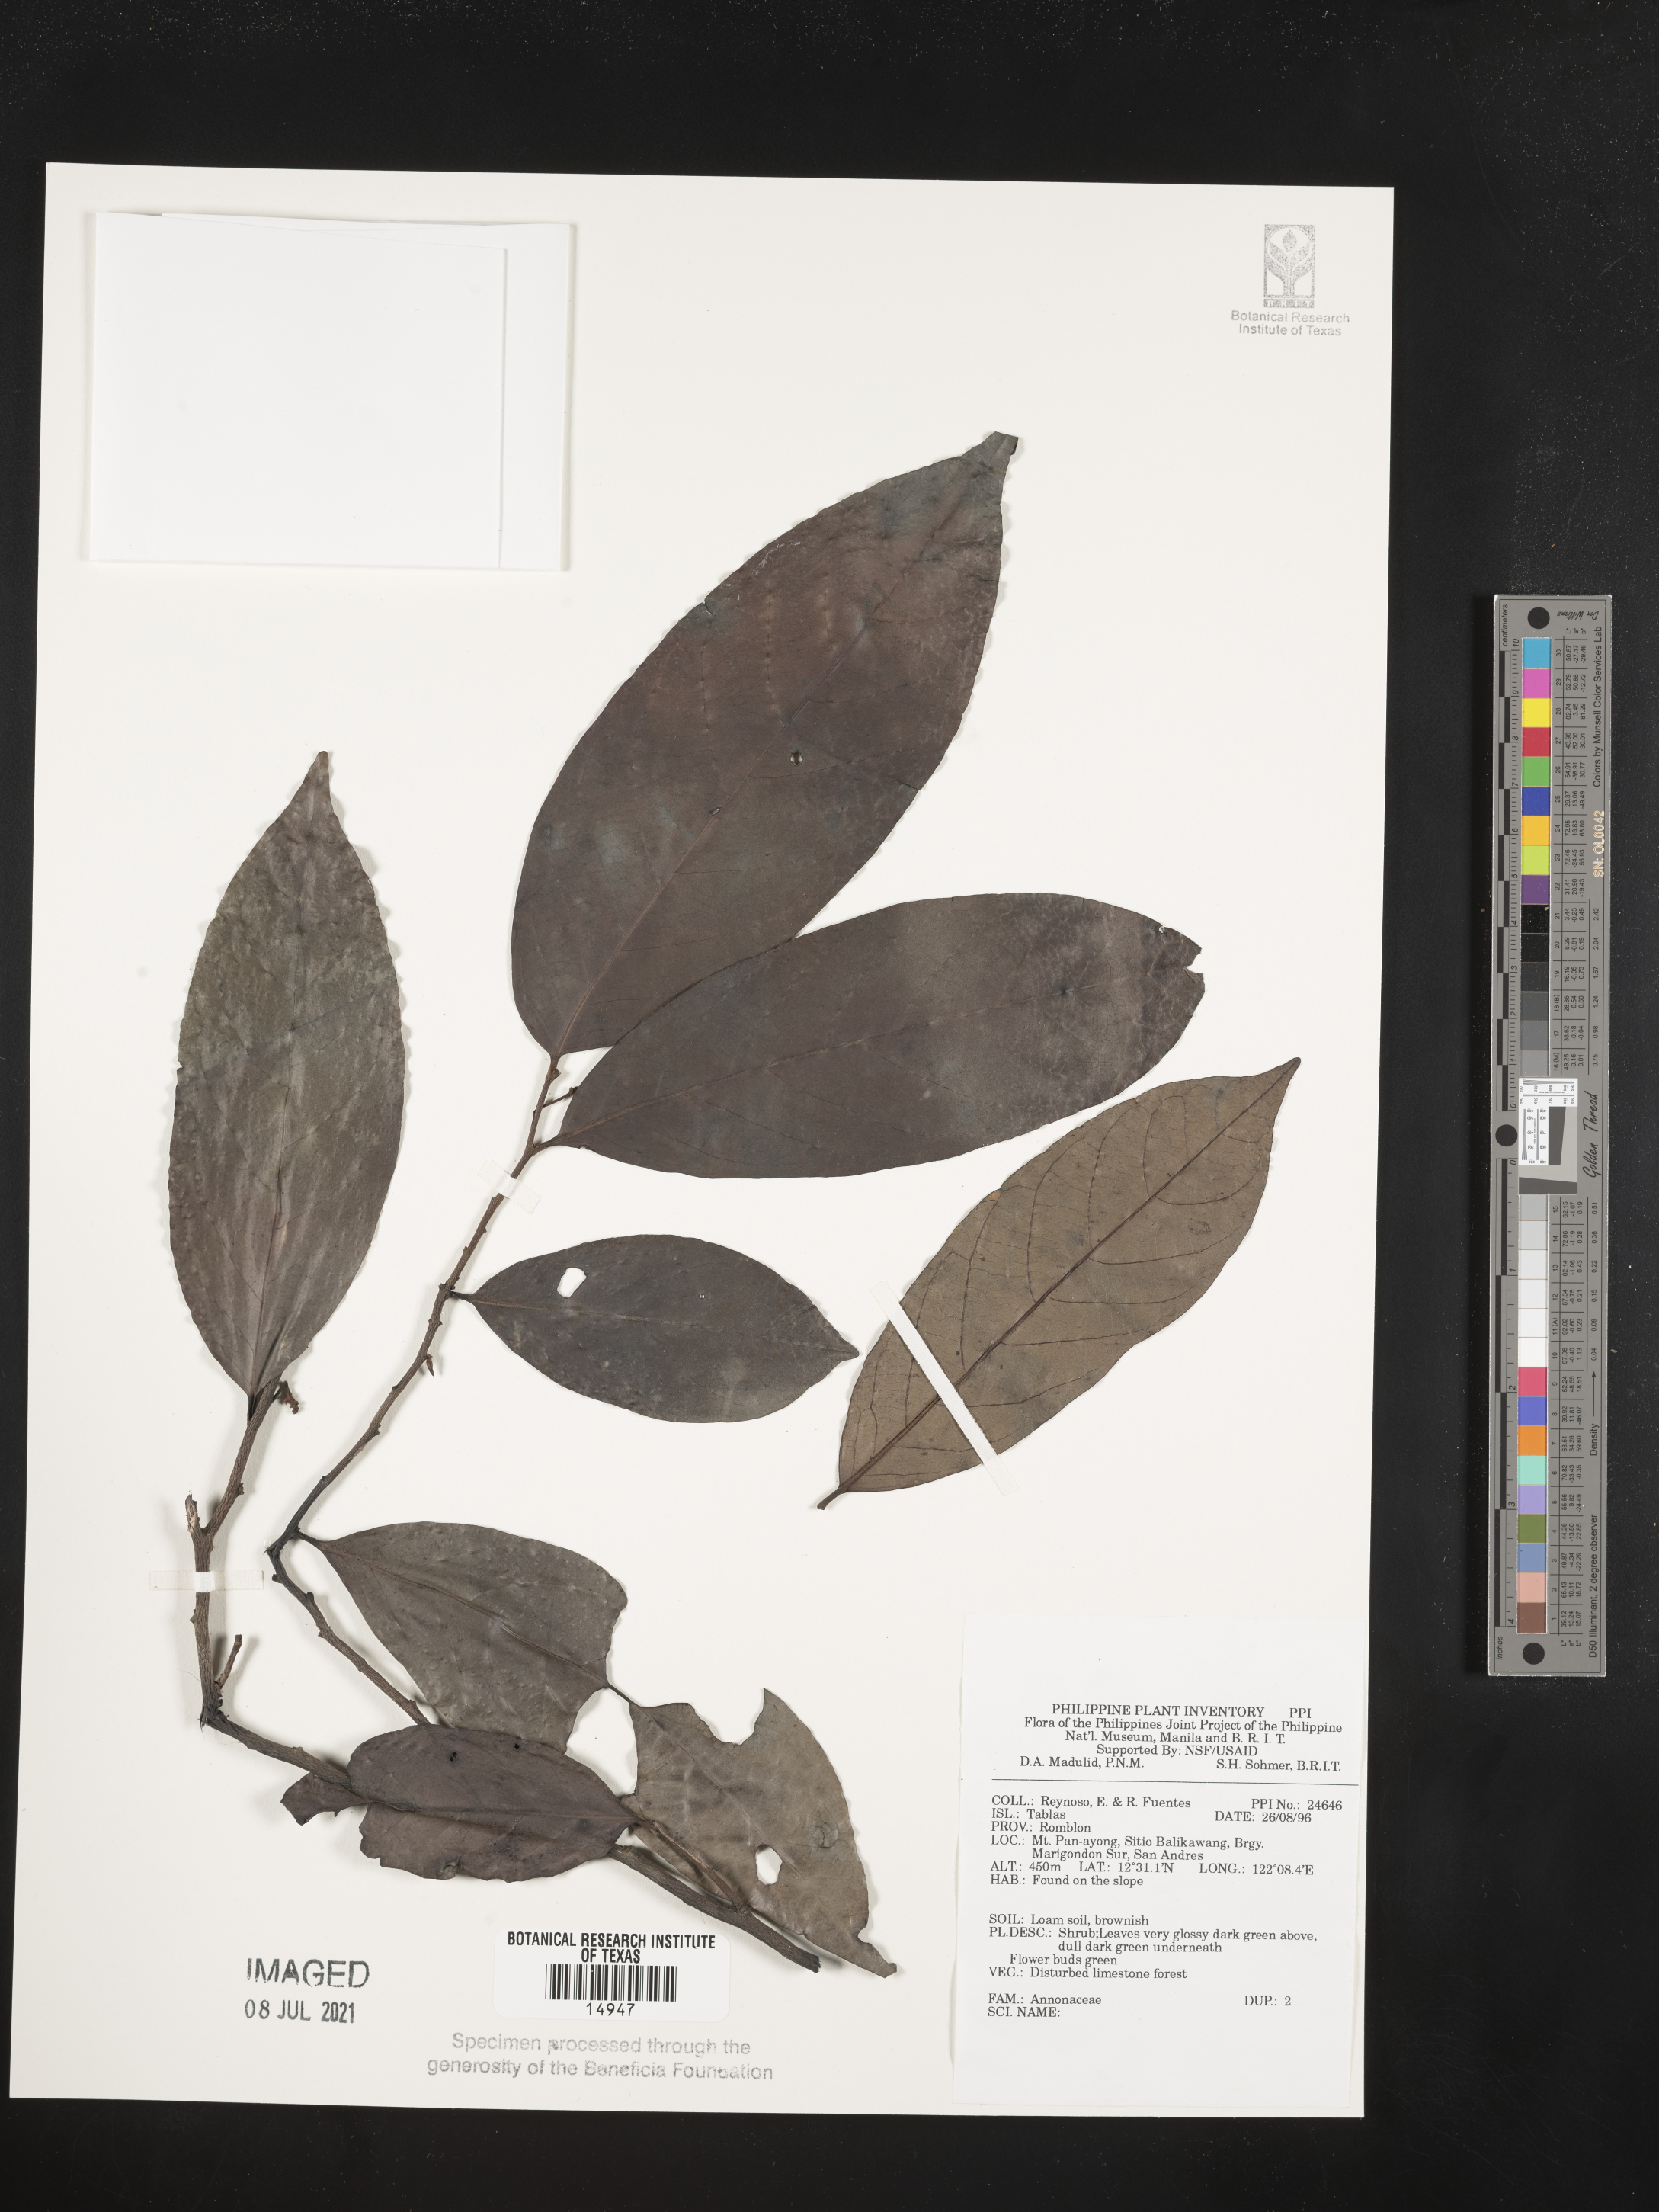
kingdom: Plantae
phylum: Tracheophyta
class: Magnoliopsida
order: Magnoliales
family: Annonaceae
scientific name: Annonaceae
